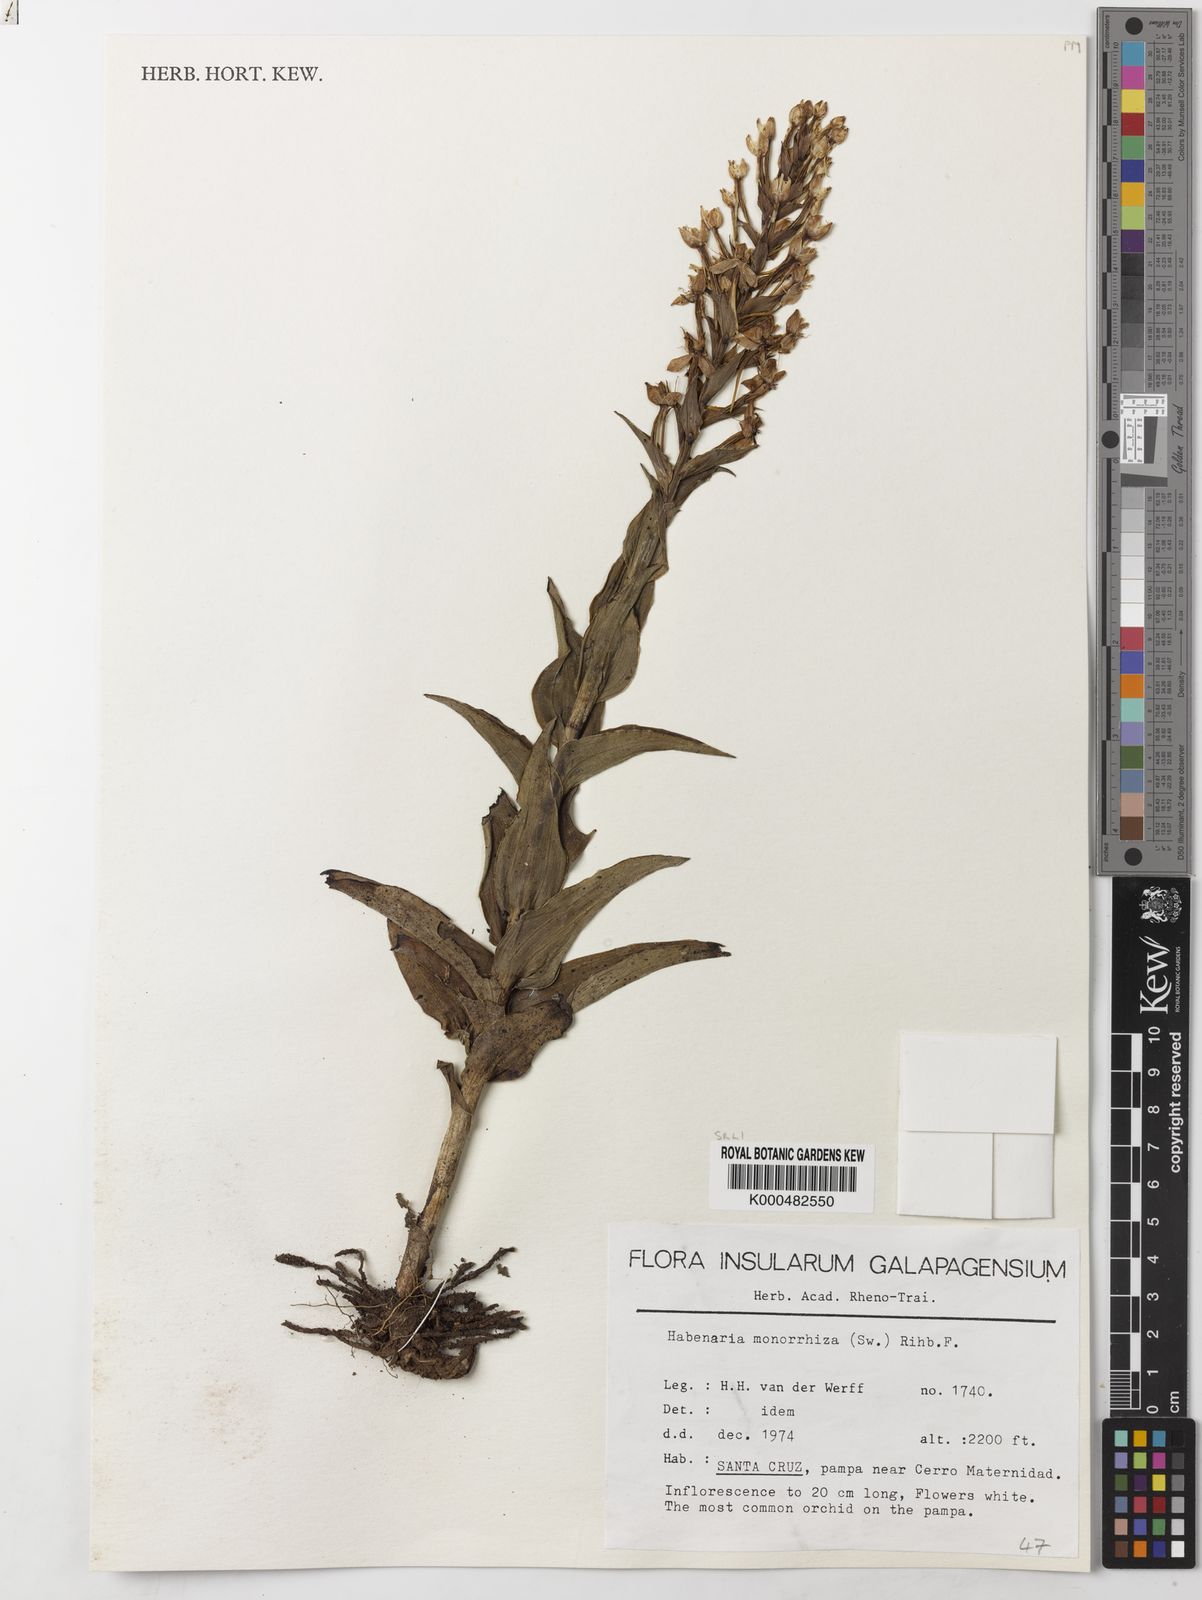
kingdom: Plantae
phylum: Tracheophyta
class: Liliopsida
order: Asparagales
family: Orchidaceae
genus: Habenaria
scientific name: Habenaria monorrhiza
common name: Tropical bog orchid
